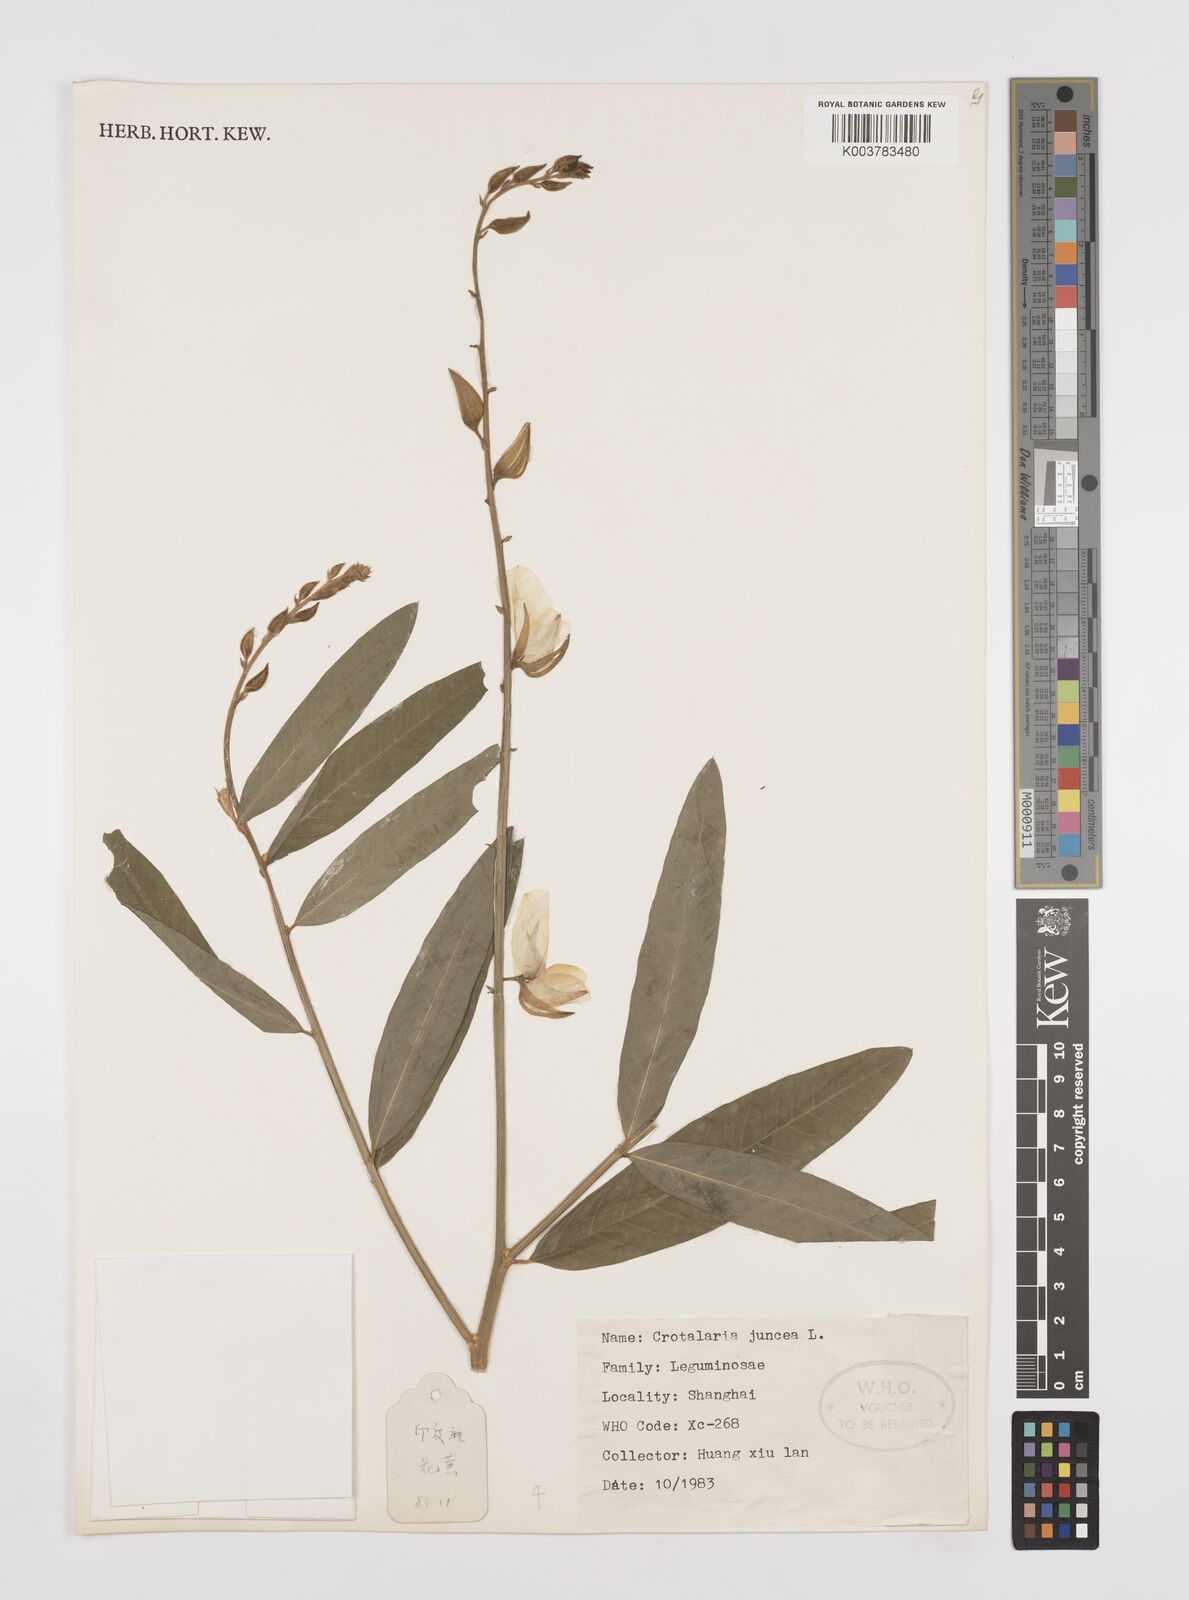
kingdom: Plantae
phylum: Tracheophyta
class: Magnoliopsida
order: Fabales
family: Fabaceae
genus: Crotalaria
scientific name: Crotalaria juncea
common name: Sunn hemp
